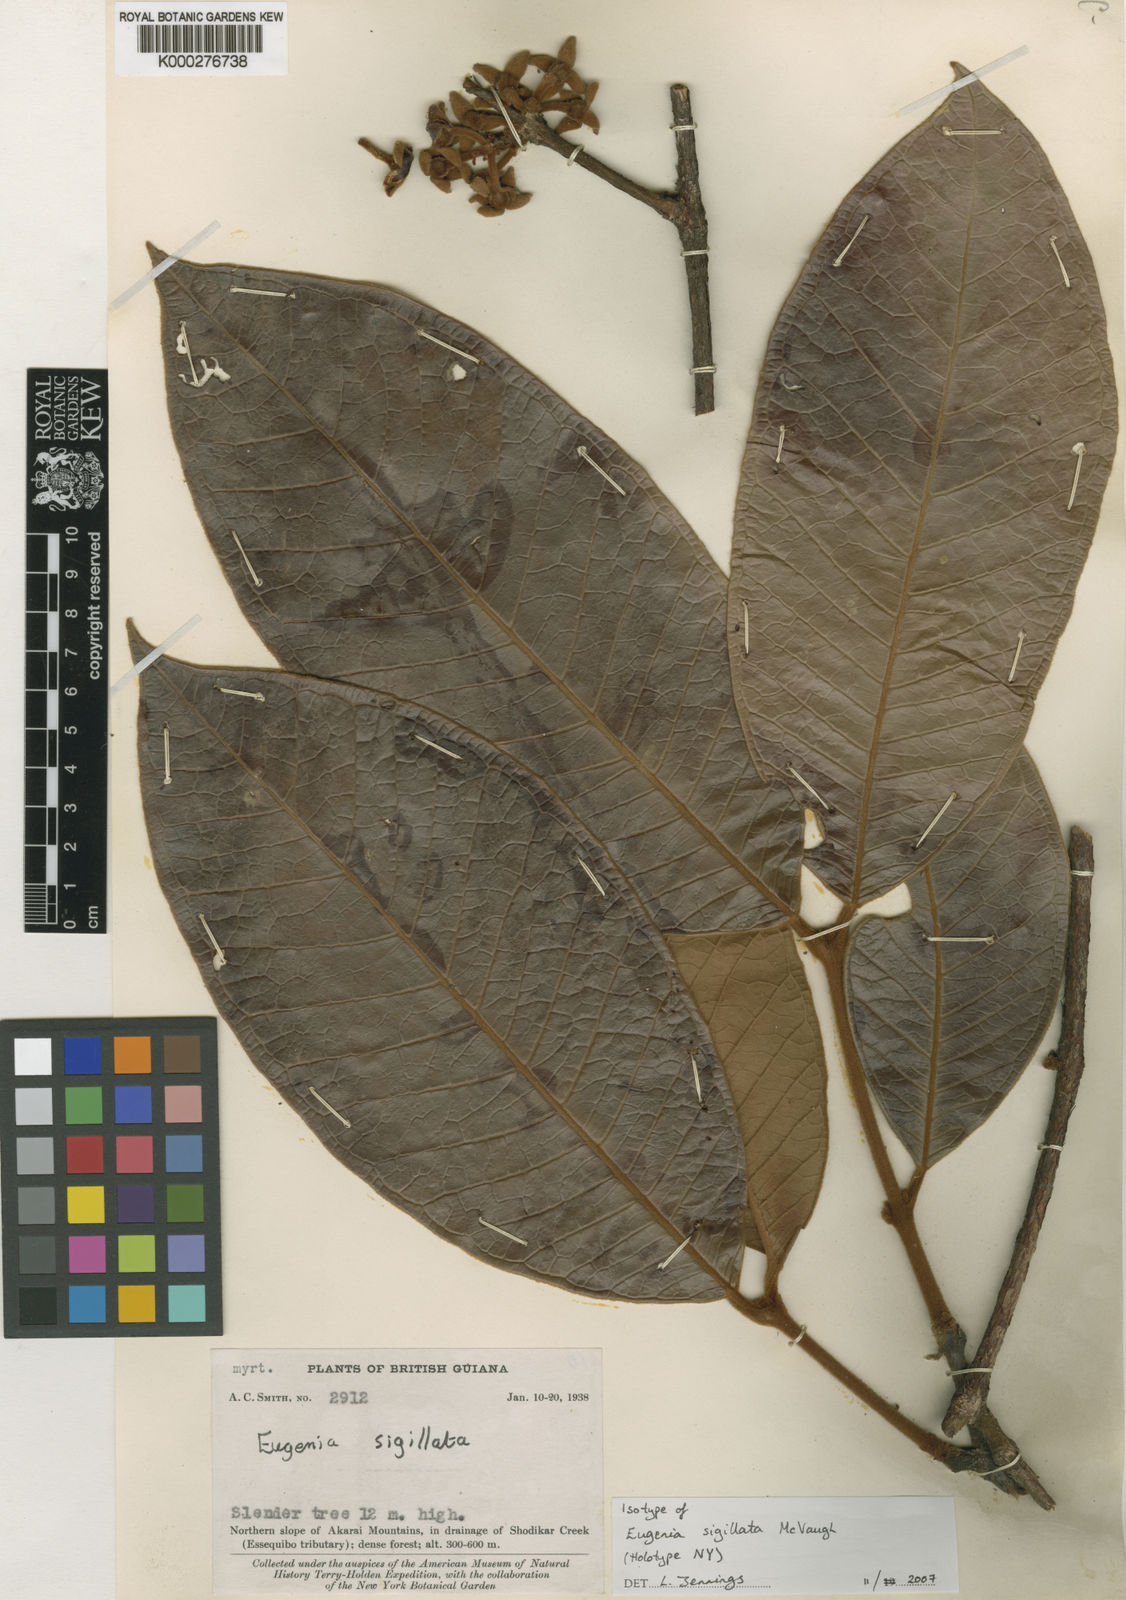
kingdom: Plantae
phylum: Tracheophyta
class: Magnoliopsida
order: Myrtales
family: Myrtaceae
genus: Eugenia
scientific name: Eugenia sigillata
